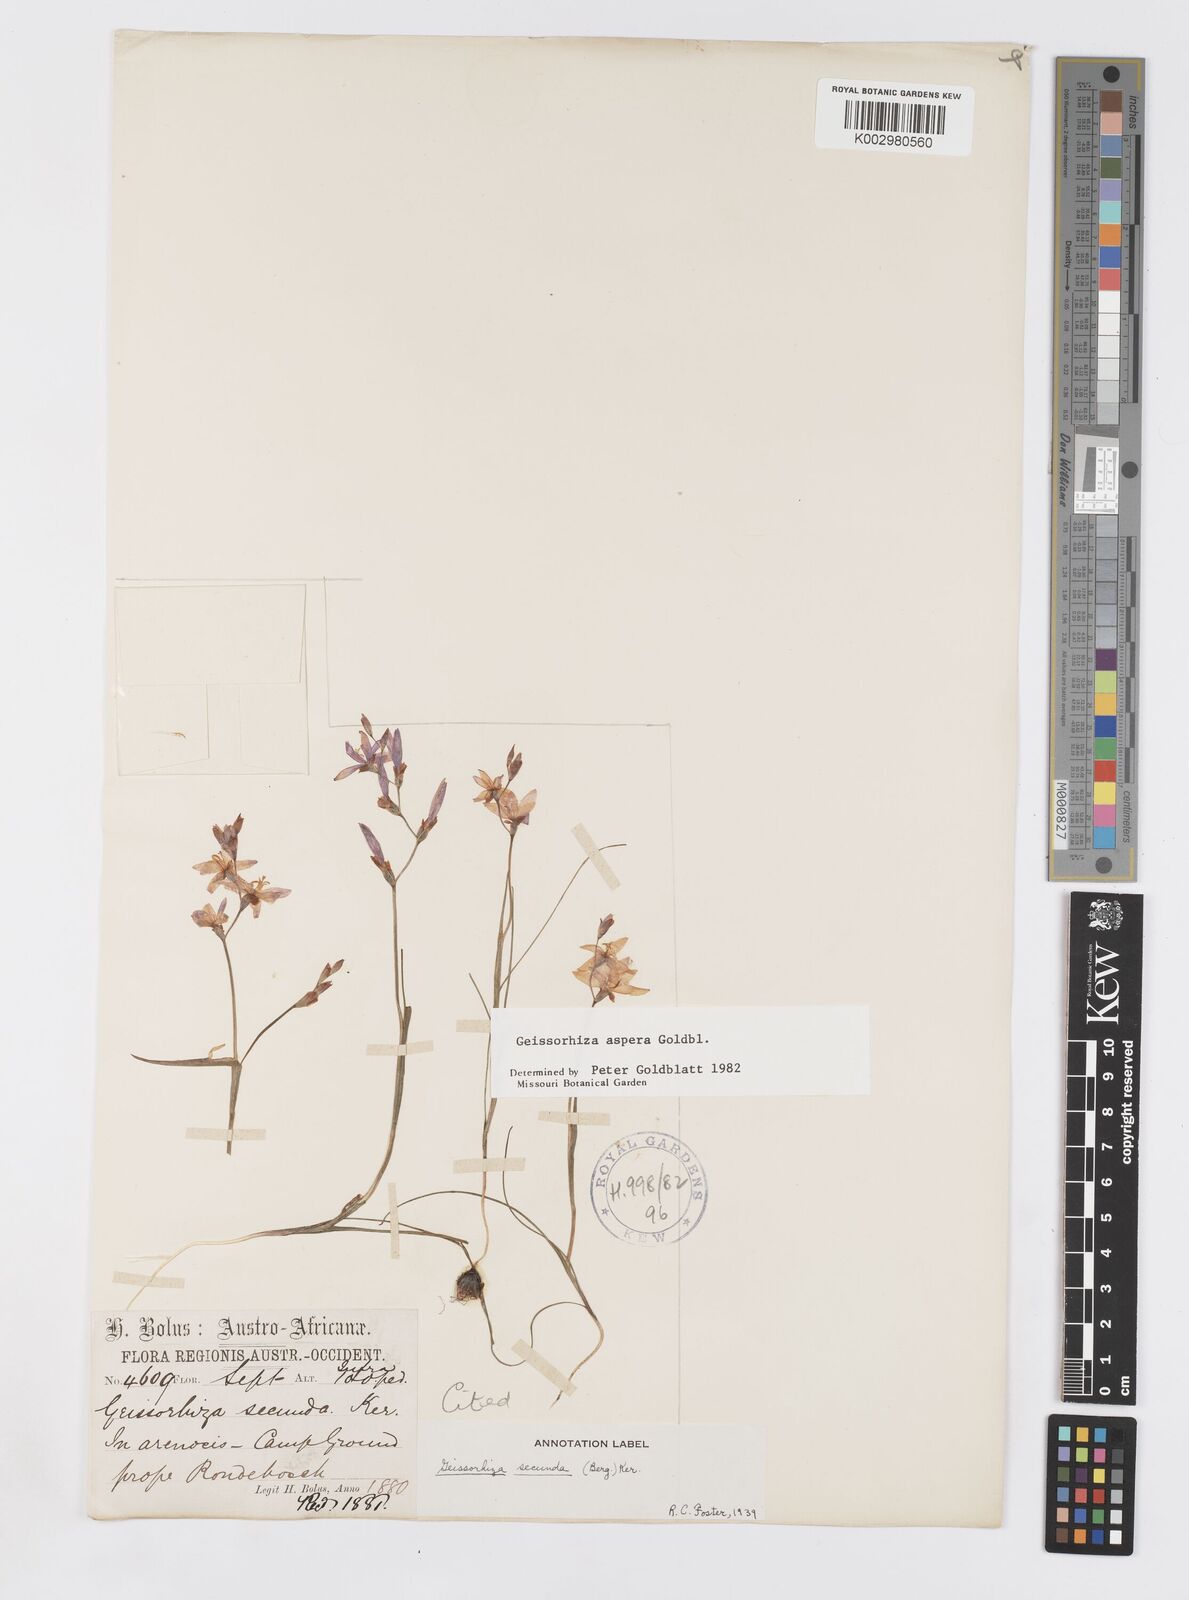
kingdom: Plantae
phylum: Tracheophyta
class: Liliopsida
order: Asparagales
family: Iridaceae
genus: Geissorhiza
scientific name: Geissorhiza aspera
